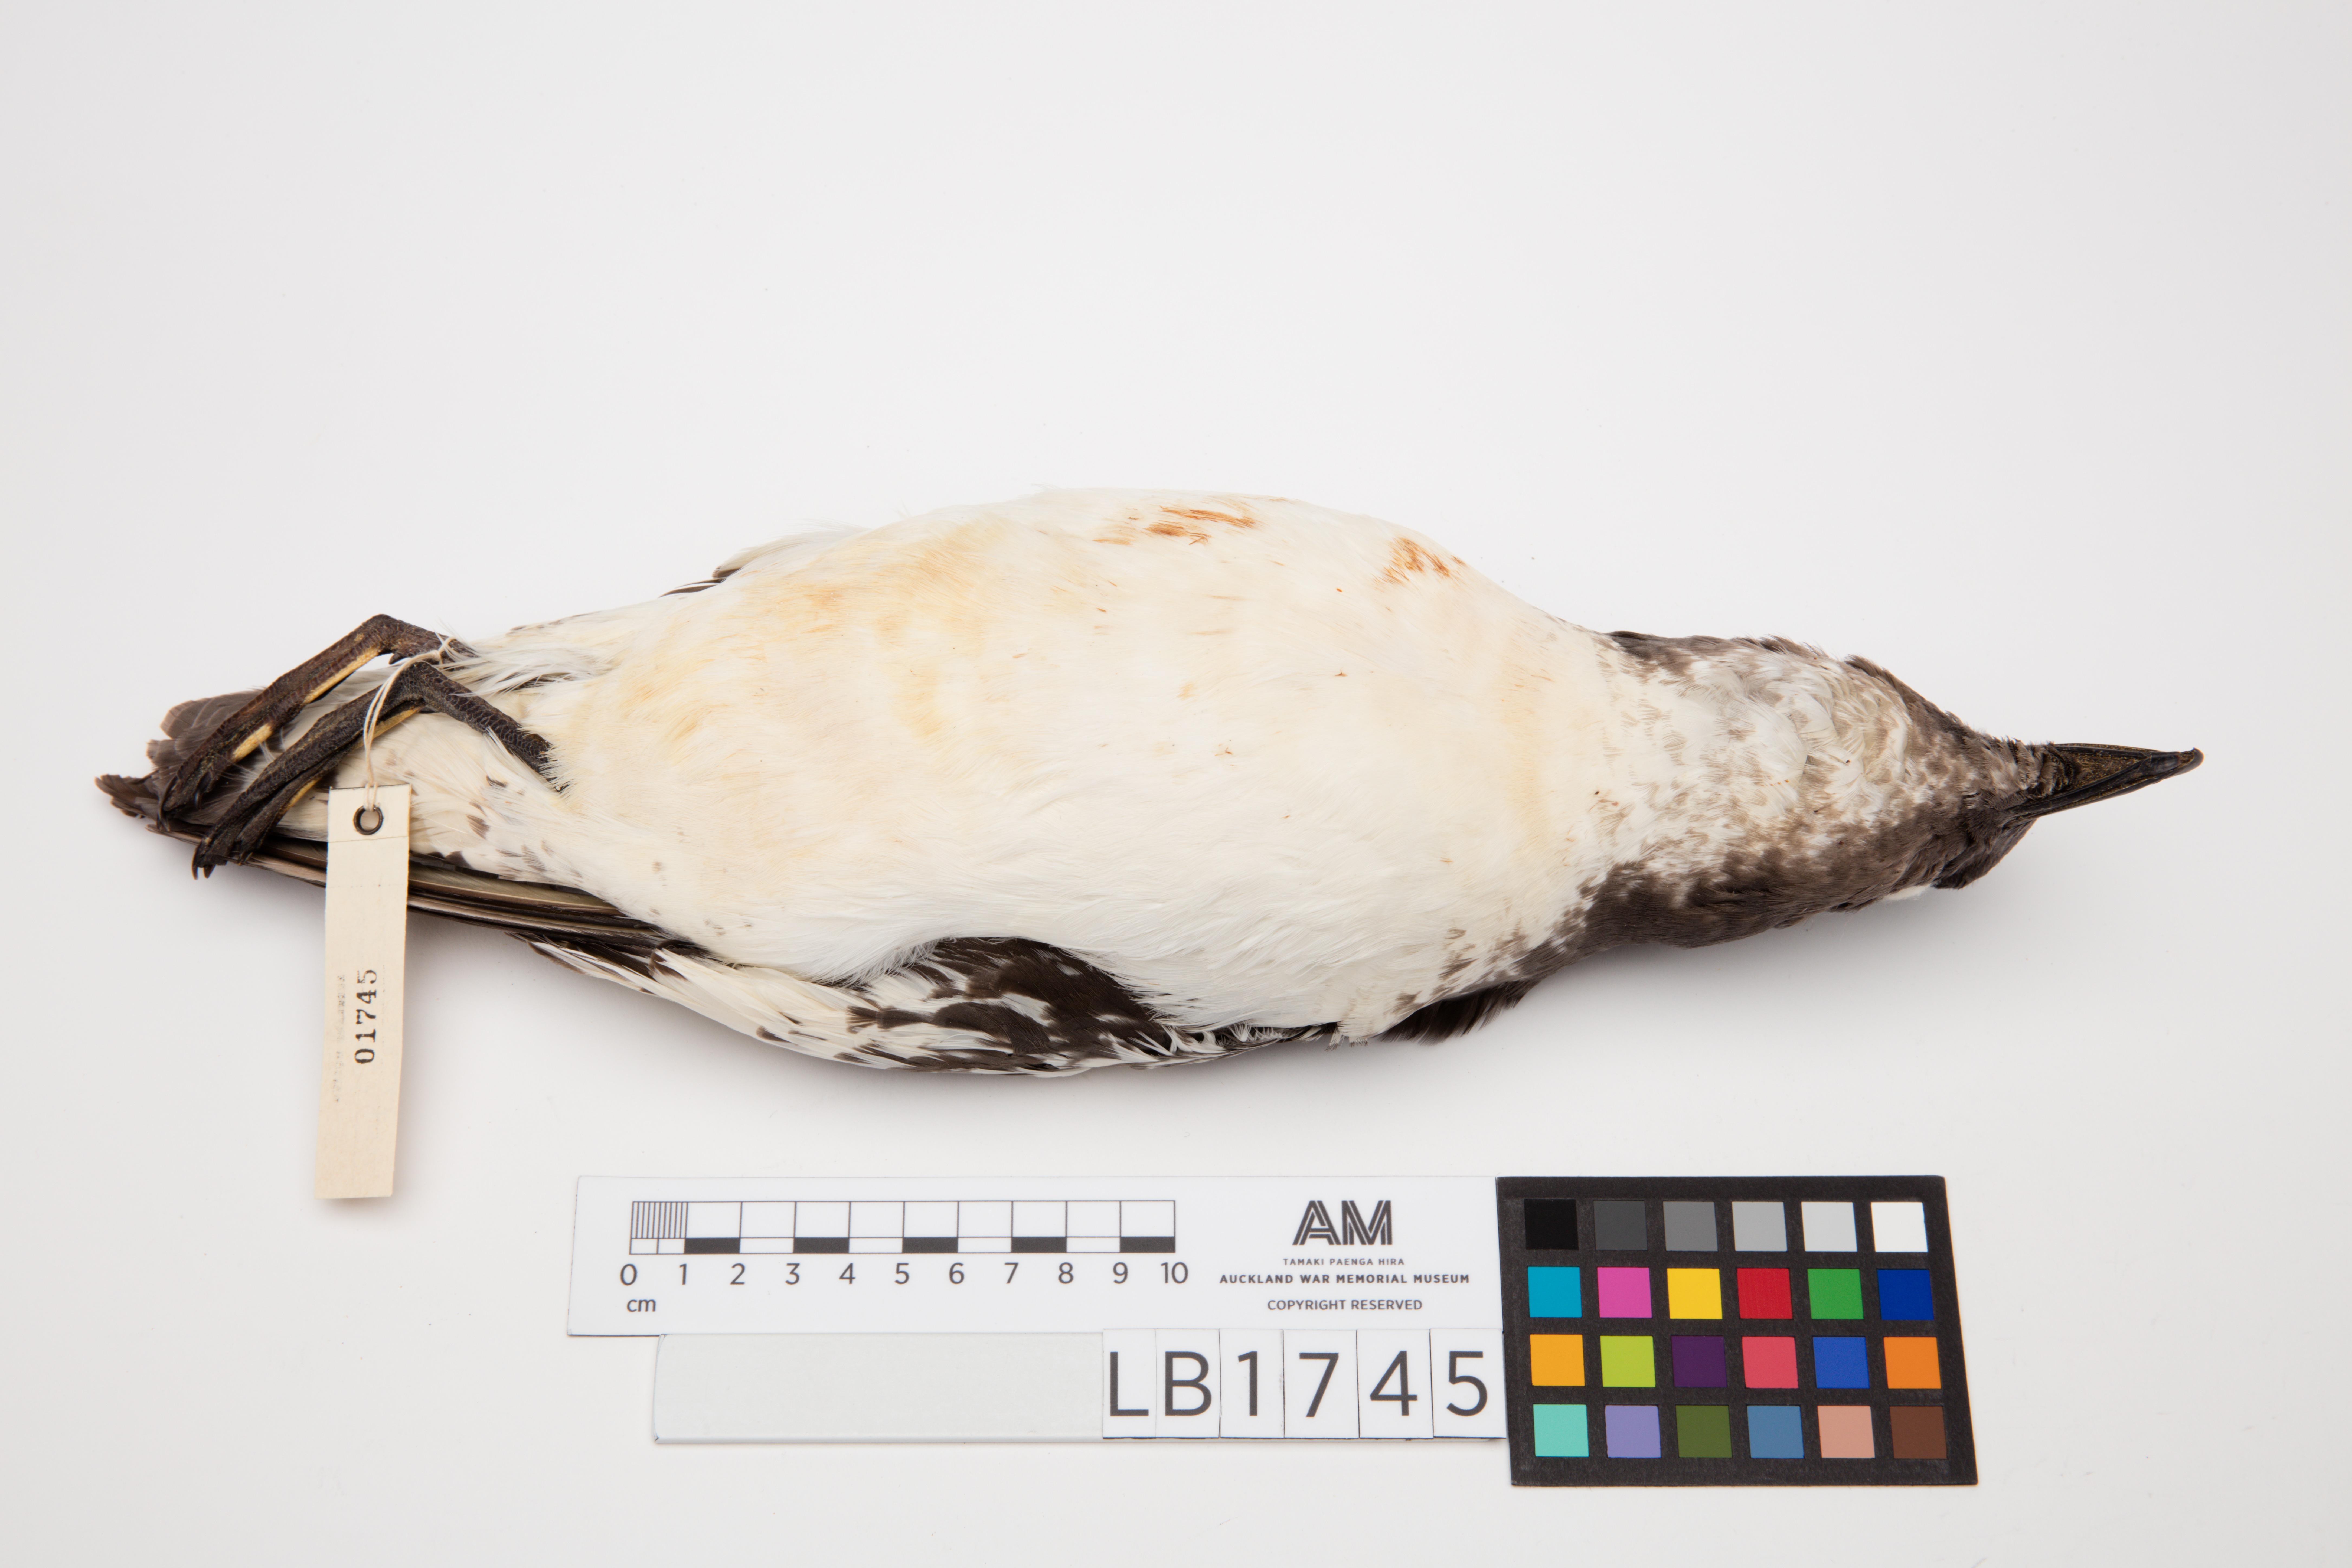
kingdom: Animalia
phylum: Chordata
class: Aves
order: Procellariiformes
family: Procellariidae
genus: Daption
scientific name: Daption capense
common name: Cape petrel
